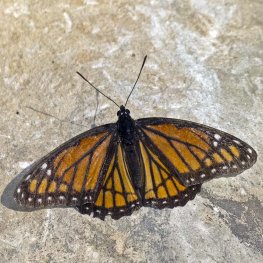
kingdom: Animalia
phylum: Arthropoda
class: Insecta
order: Lepidoptera
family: Nymphalidae
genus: Limenitis
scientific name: Limenitis archippus
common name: Viceroy
